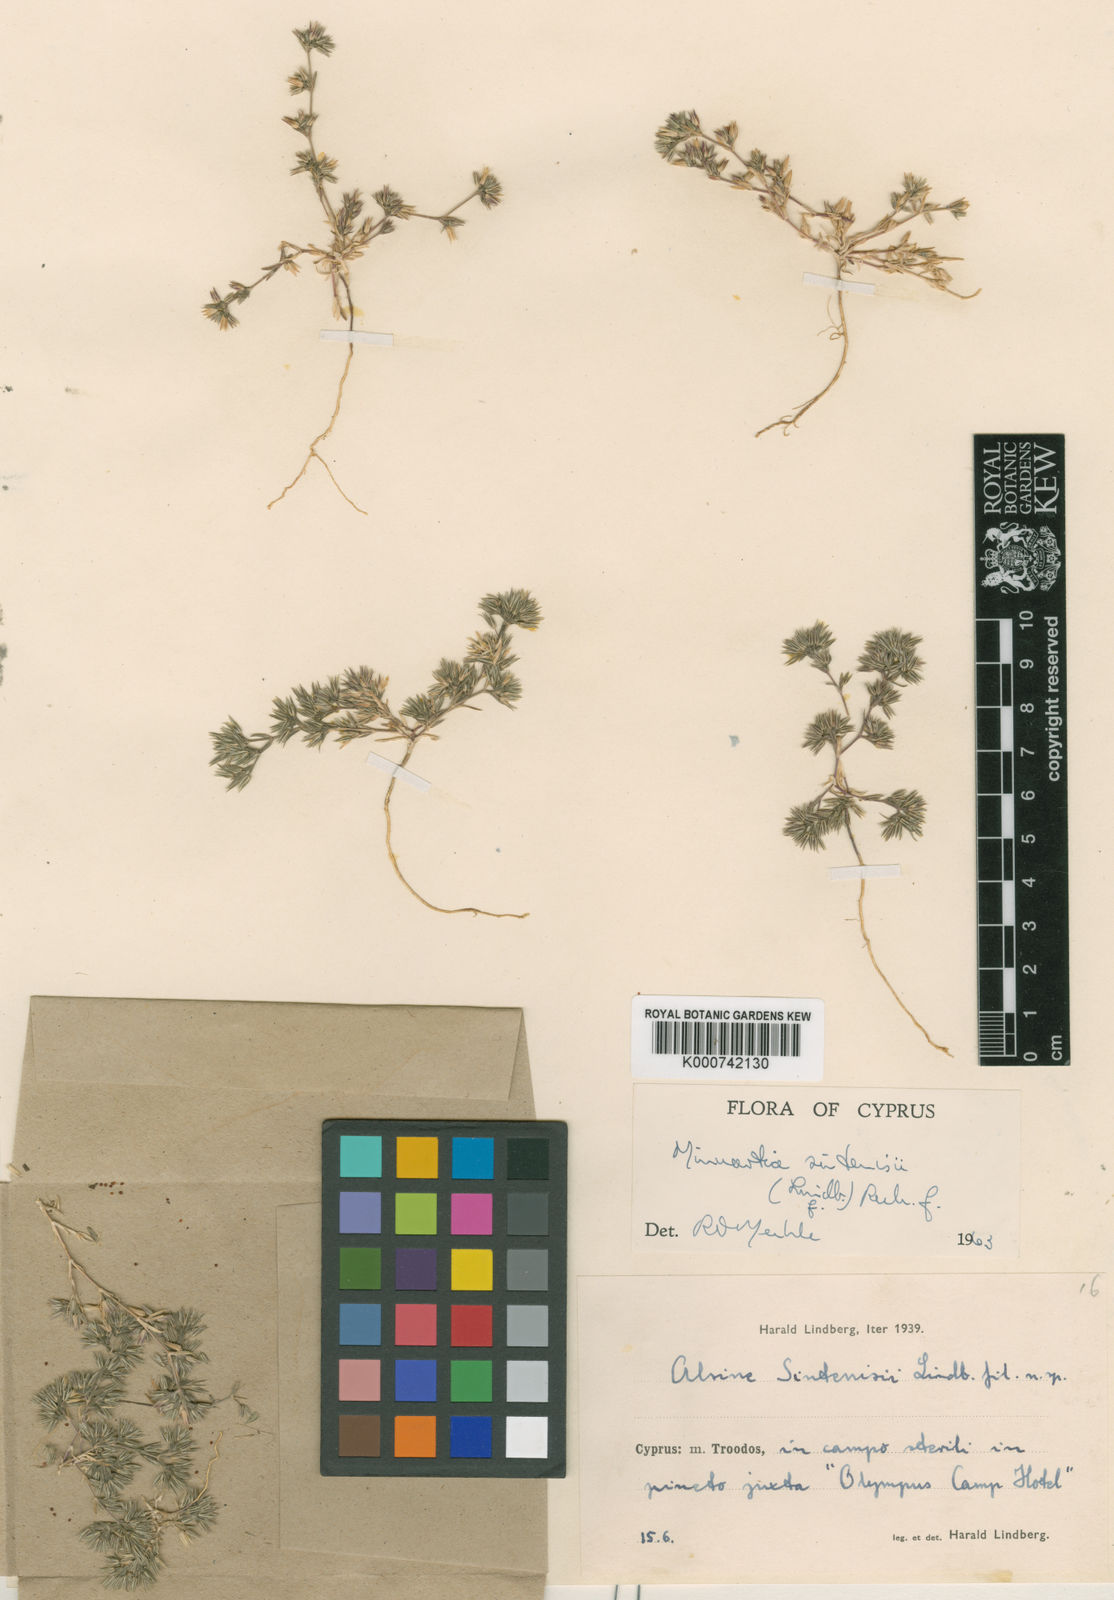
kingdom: Plantae
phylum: Tracheophyta
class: Magnoliopsida
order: Caryophyllales
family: Caryophyllaceae
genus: Minuartia
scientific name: Minuartia sintenisii
